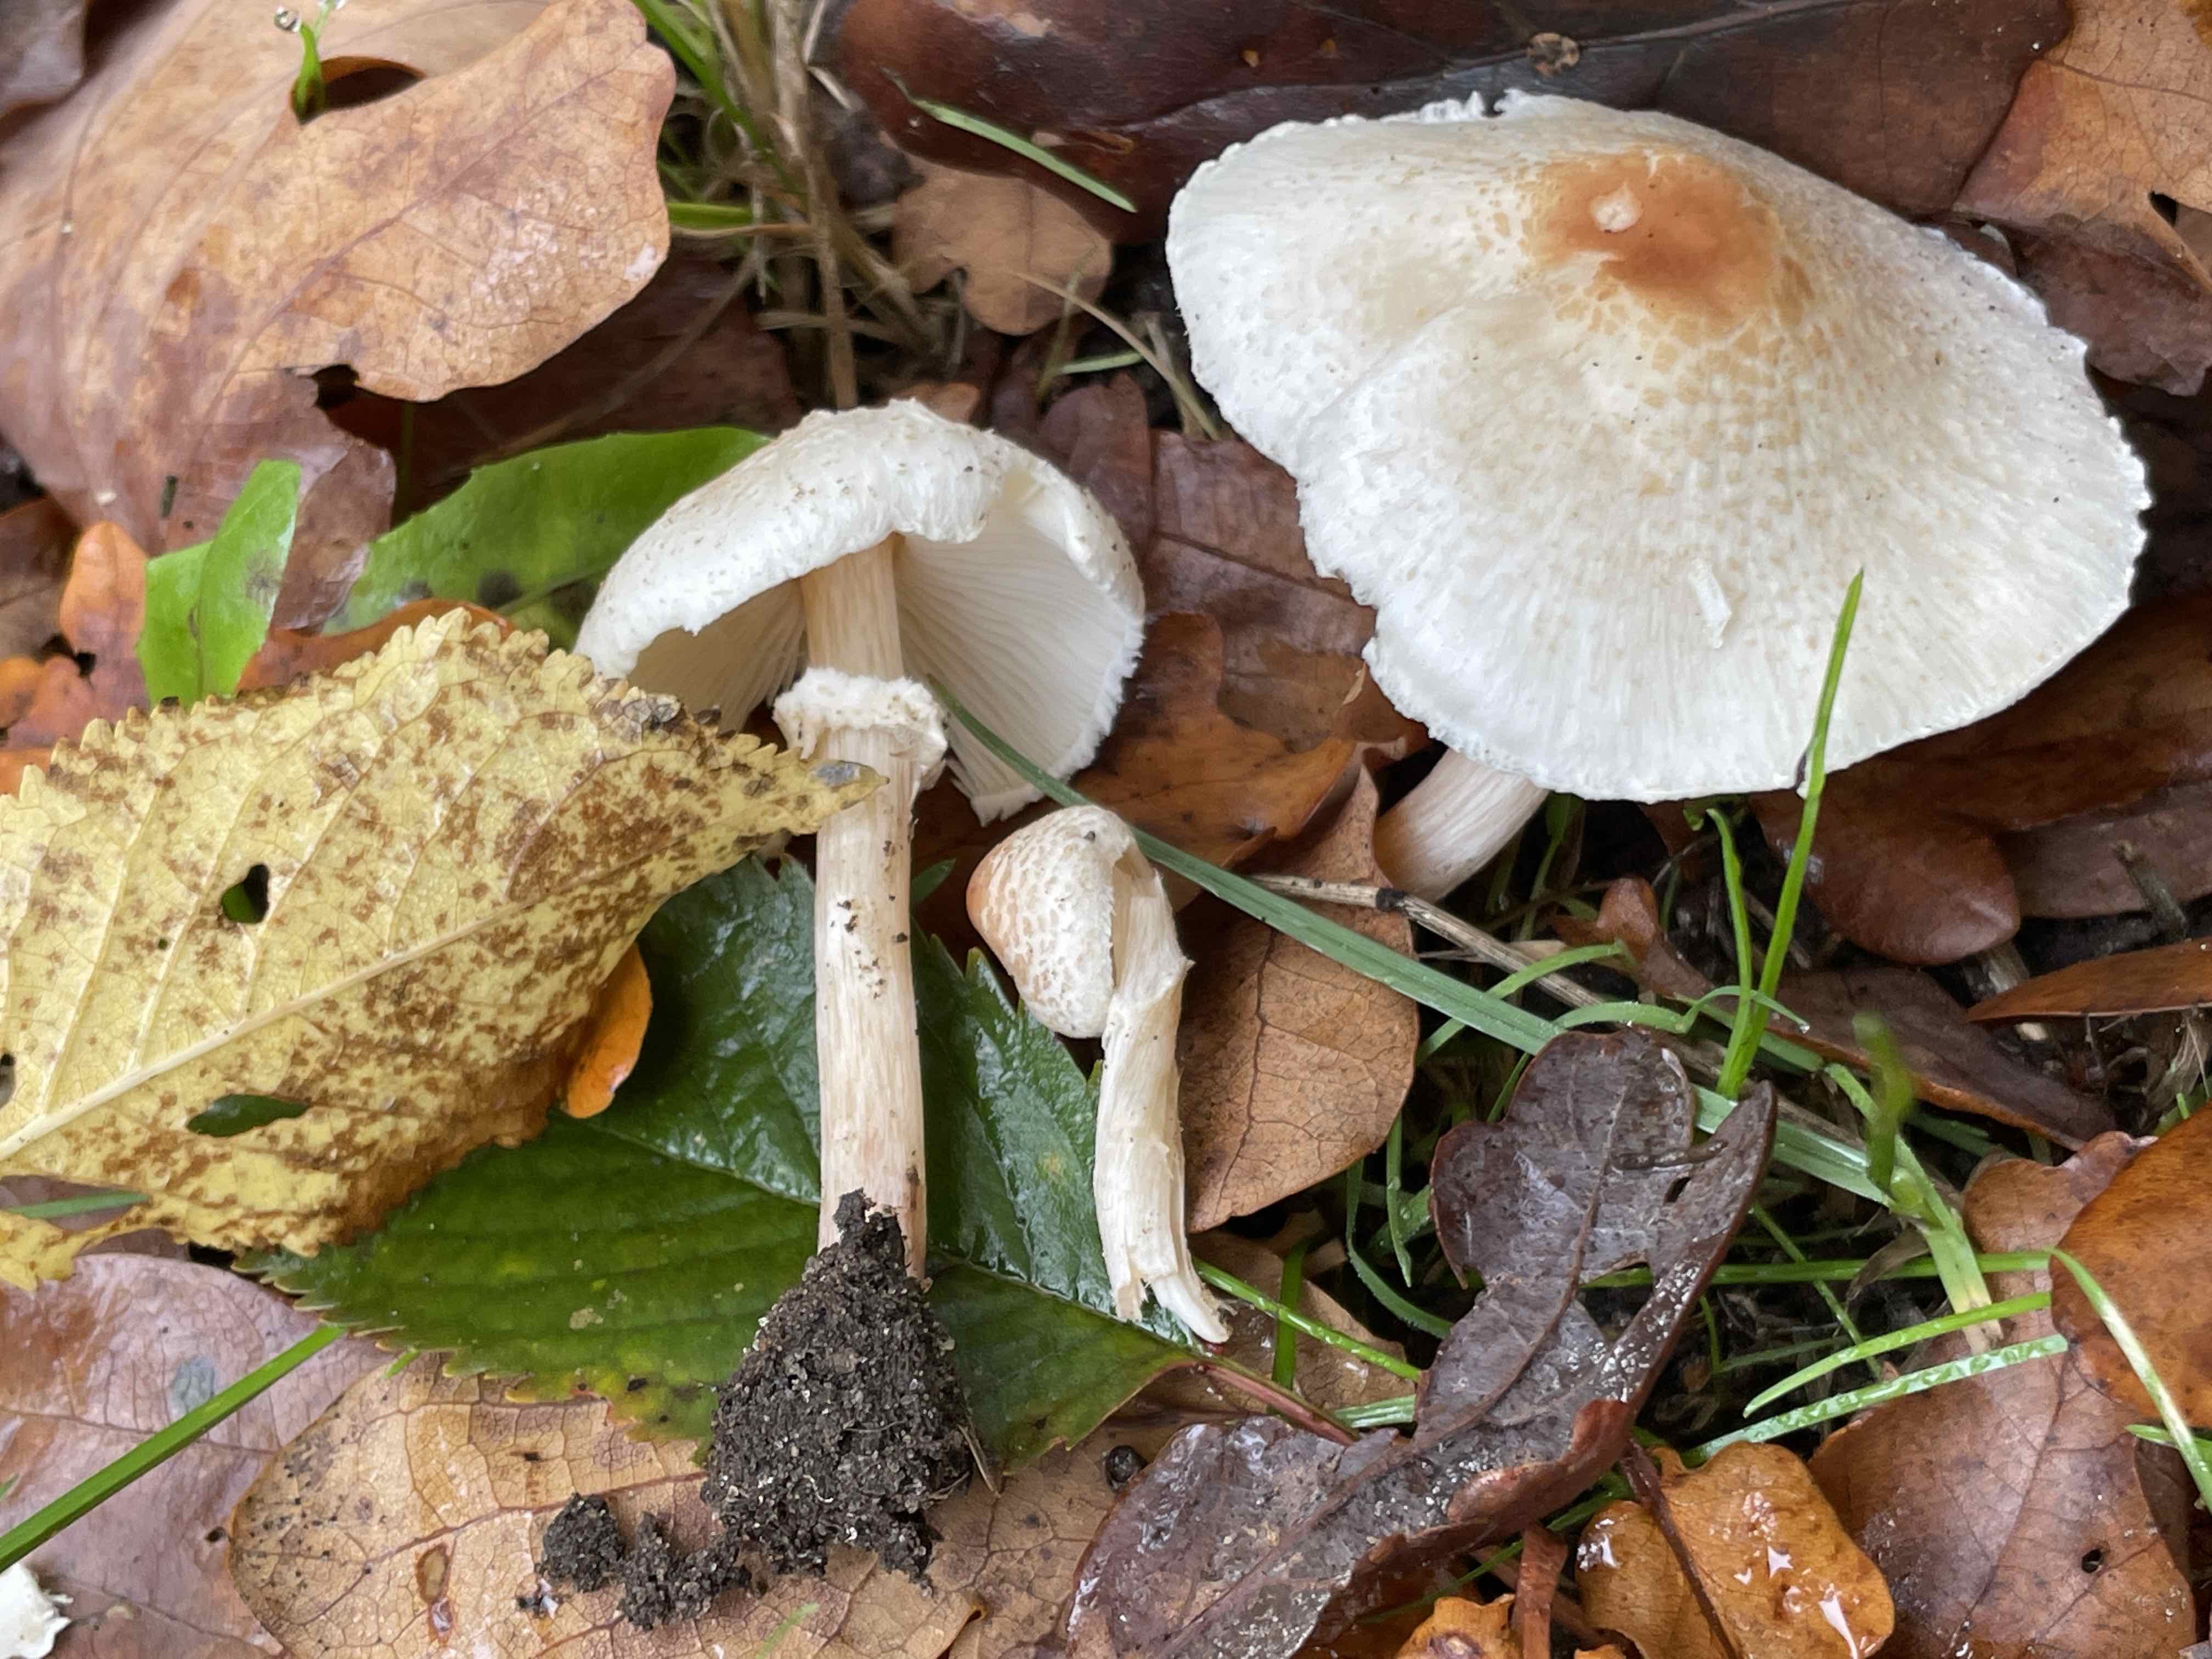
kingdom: Fungi
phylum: Basidiomycota
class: Agaricomycetes
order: Agaricales
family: Agaricaceae
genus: Lepiota
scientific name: Lepiota cristata
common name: stinkende parasolhat
